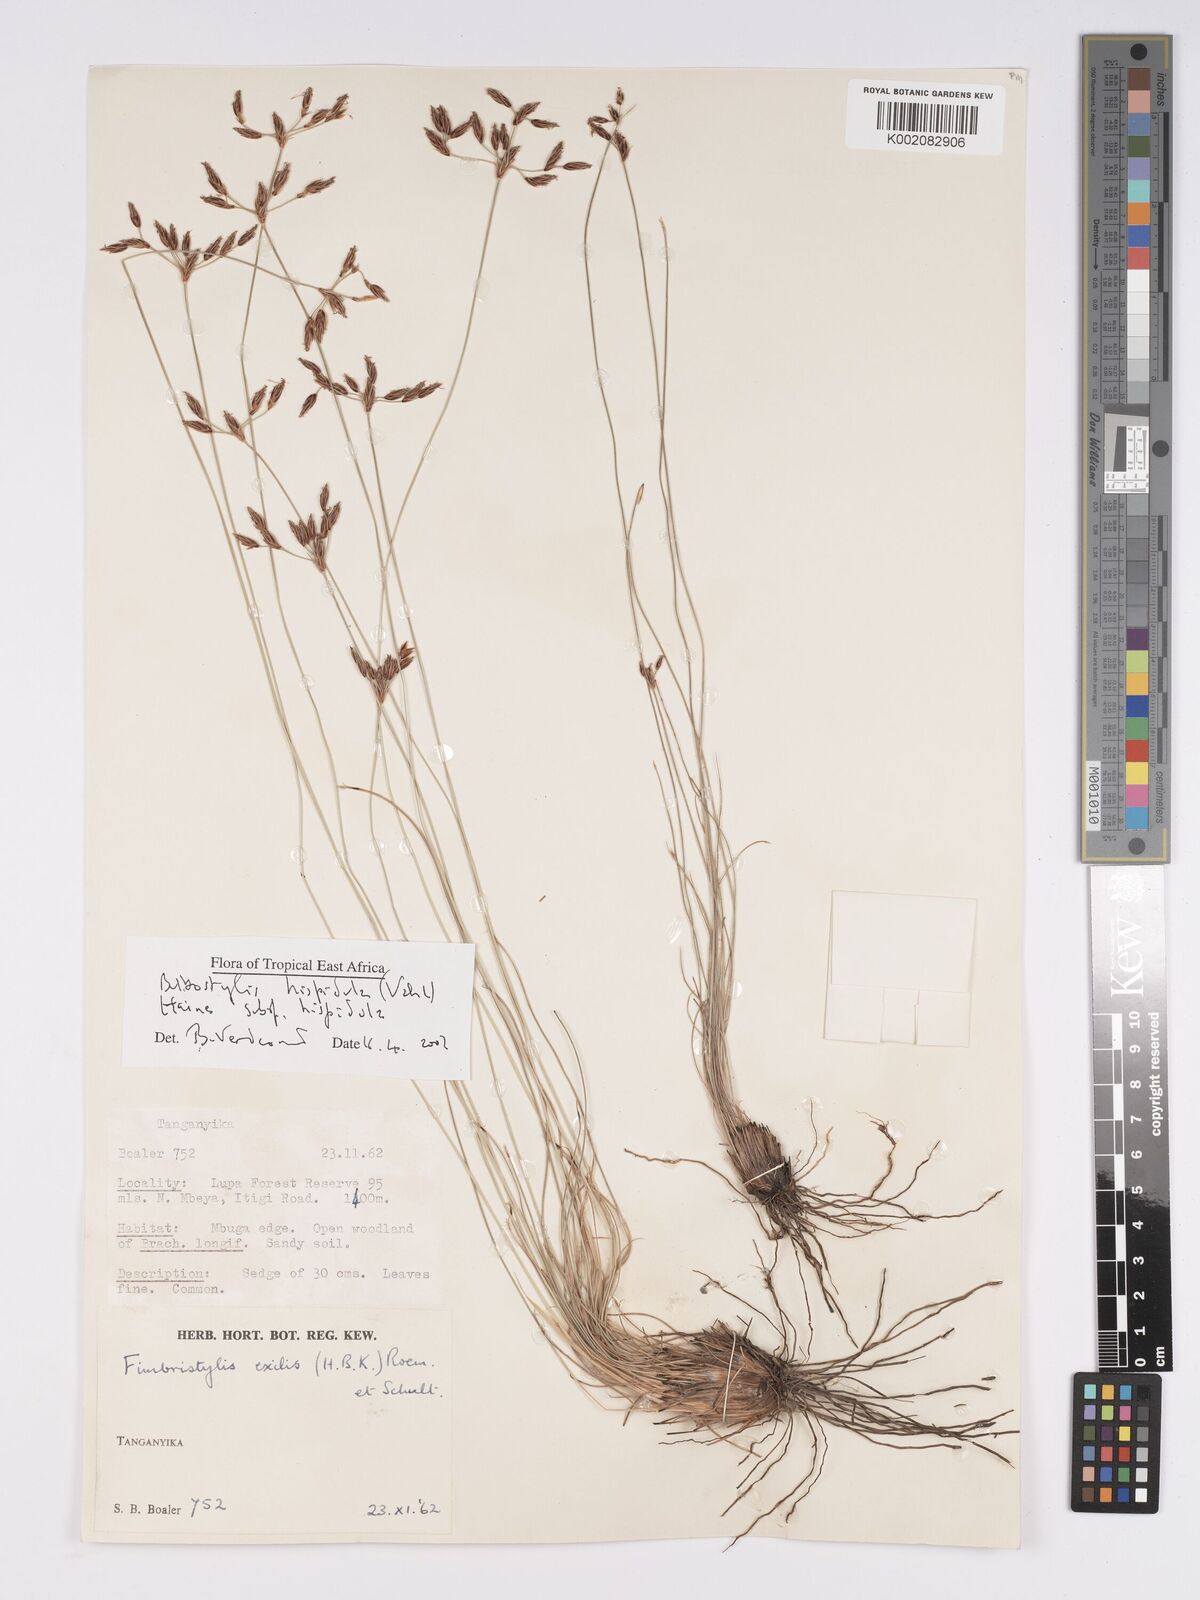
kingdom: Plantae
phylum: Tracheophyta
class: Liliopsida
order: Poales
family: Cyperaceae
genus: Bulbostylis
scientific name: Bulbostylis hispidula
